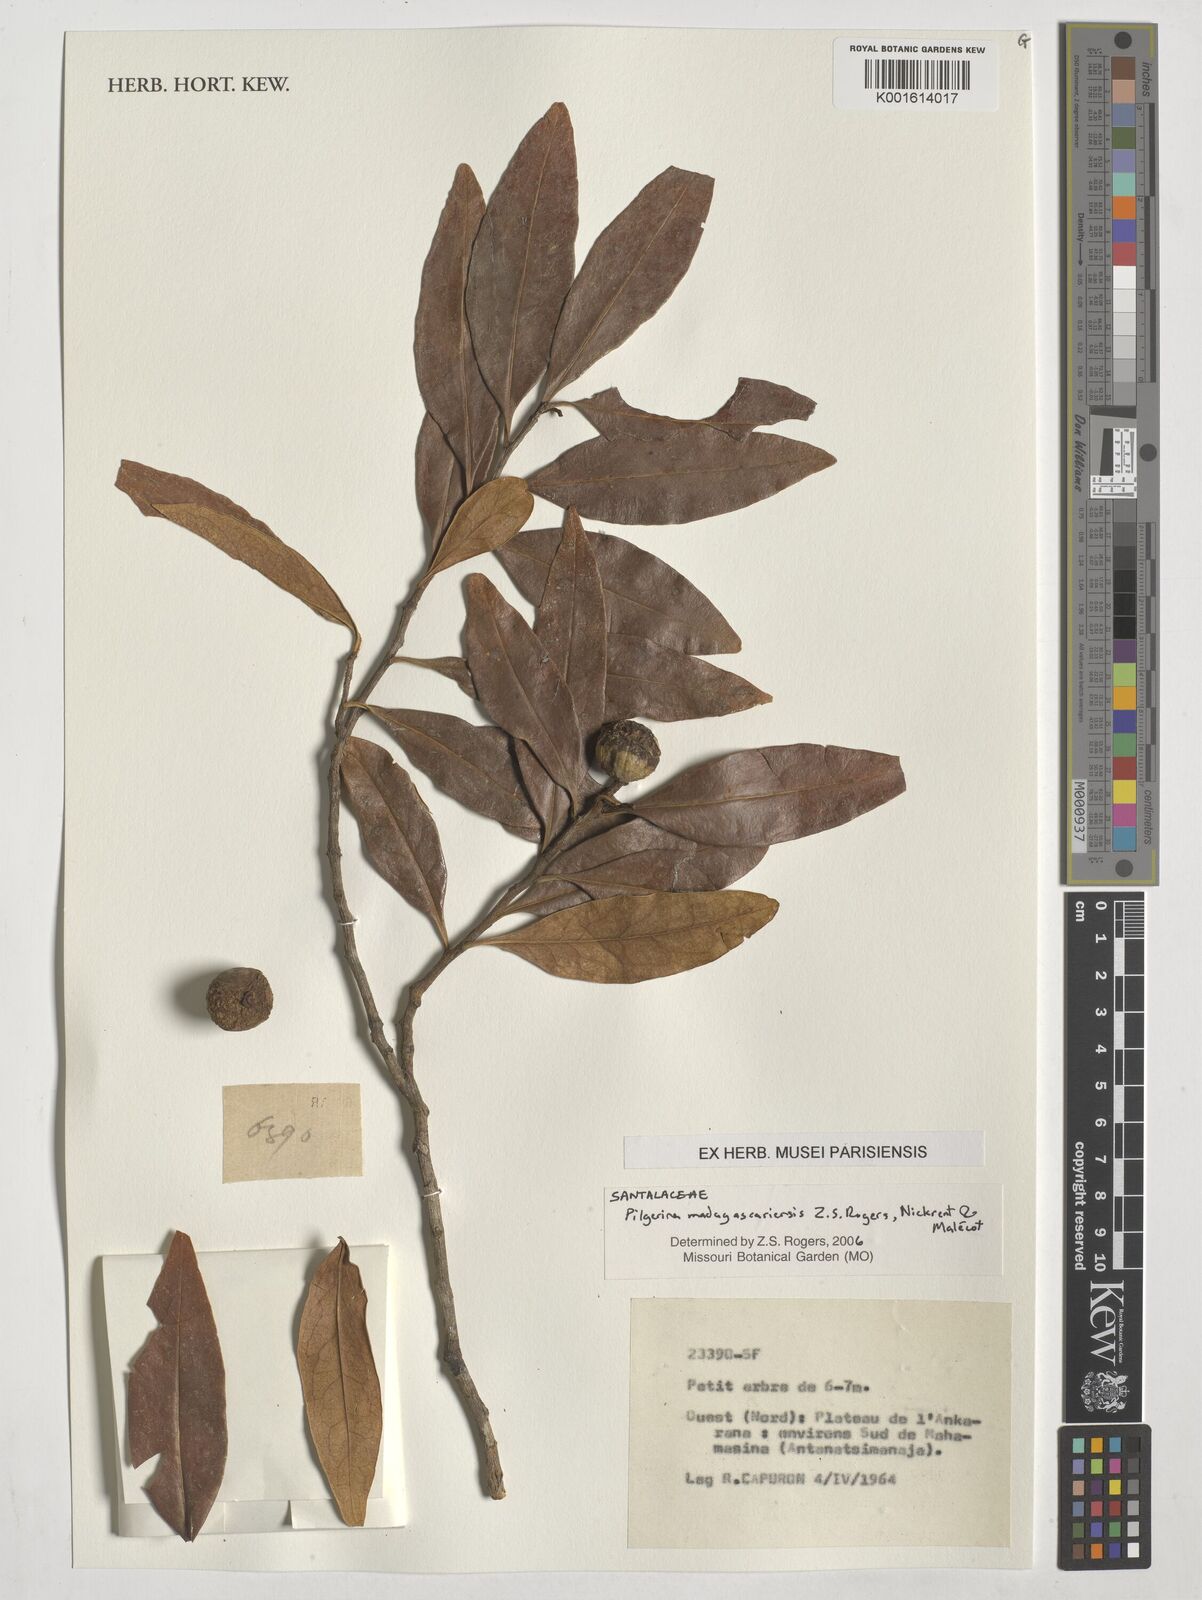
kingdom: Plantae
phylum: Tracheophyta
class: Magnoliopsida
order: Santalales
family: Cervantesiaceae
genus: Pilgerina
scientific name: Pilgerina madagascariensis
